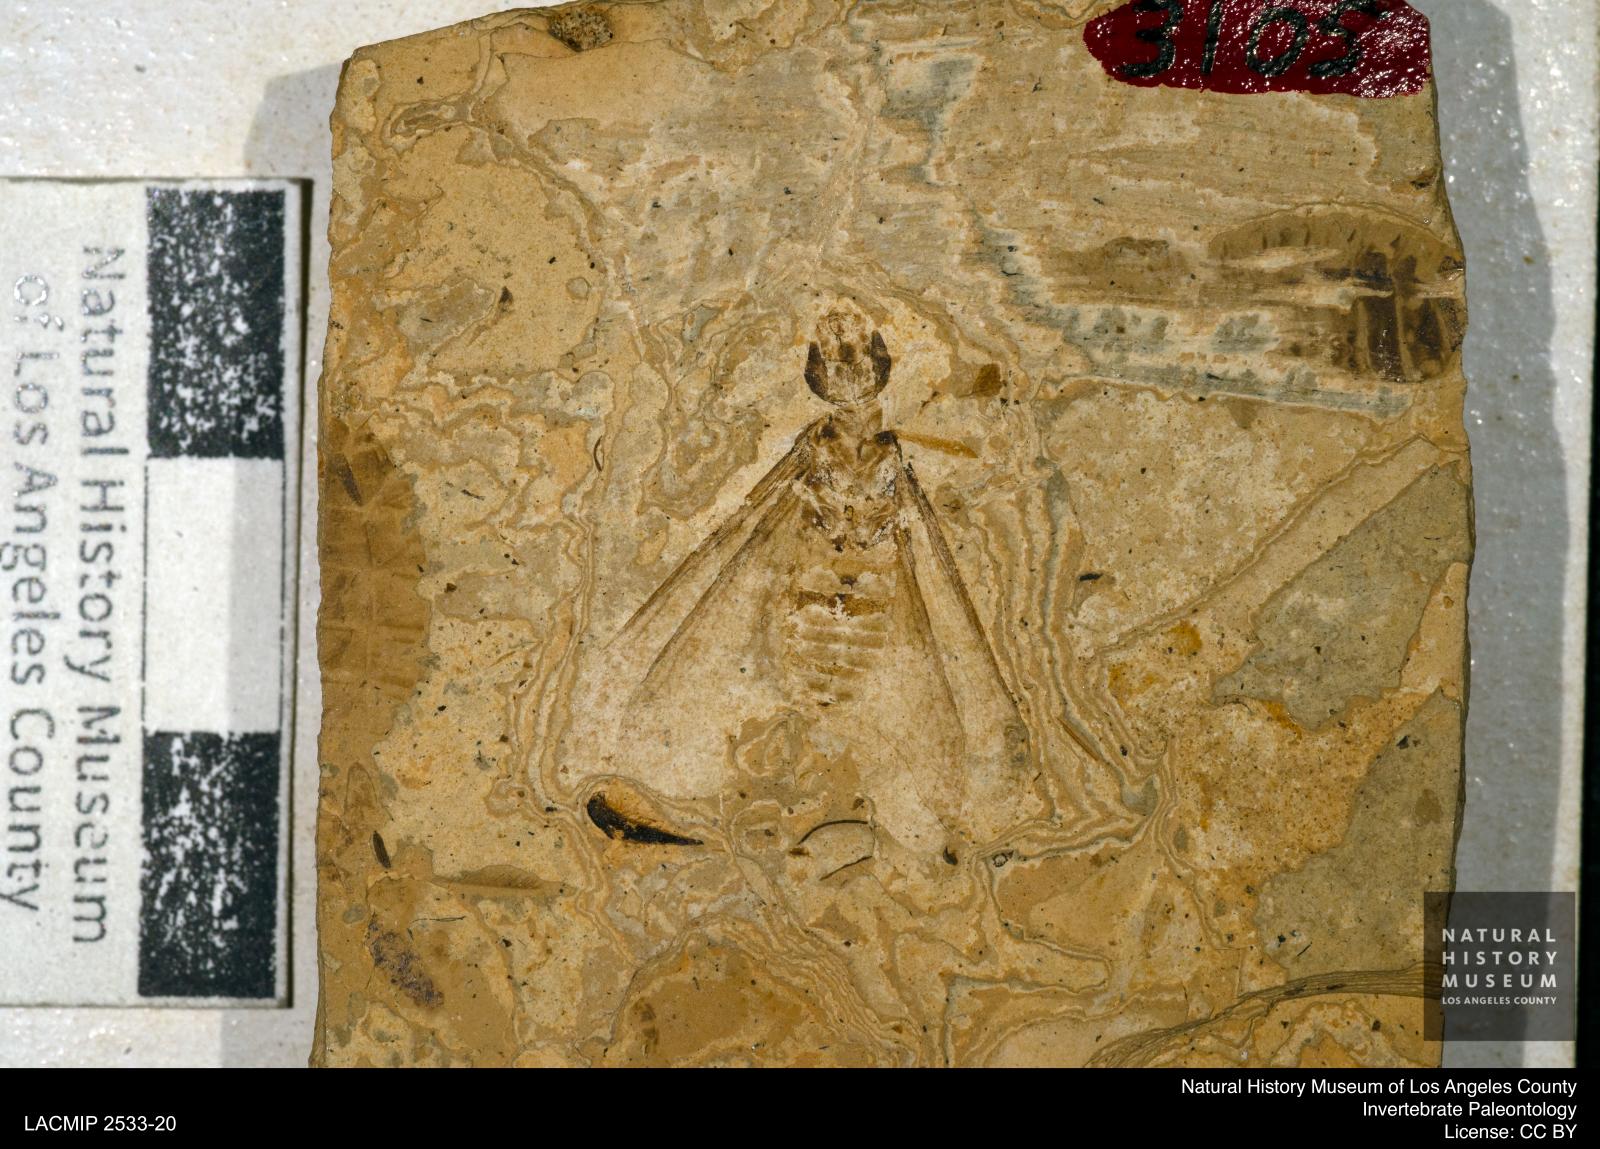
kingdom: Animalia
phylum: Arthropoda
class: Insecta
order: Blattodea
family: Hodotermitidae
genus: Ulmeriella
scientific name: Ulmeriella bauckhorni
